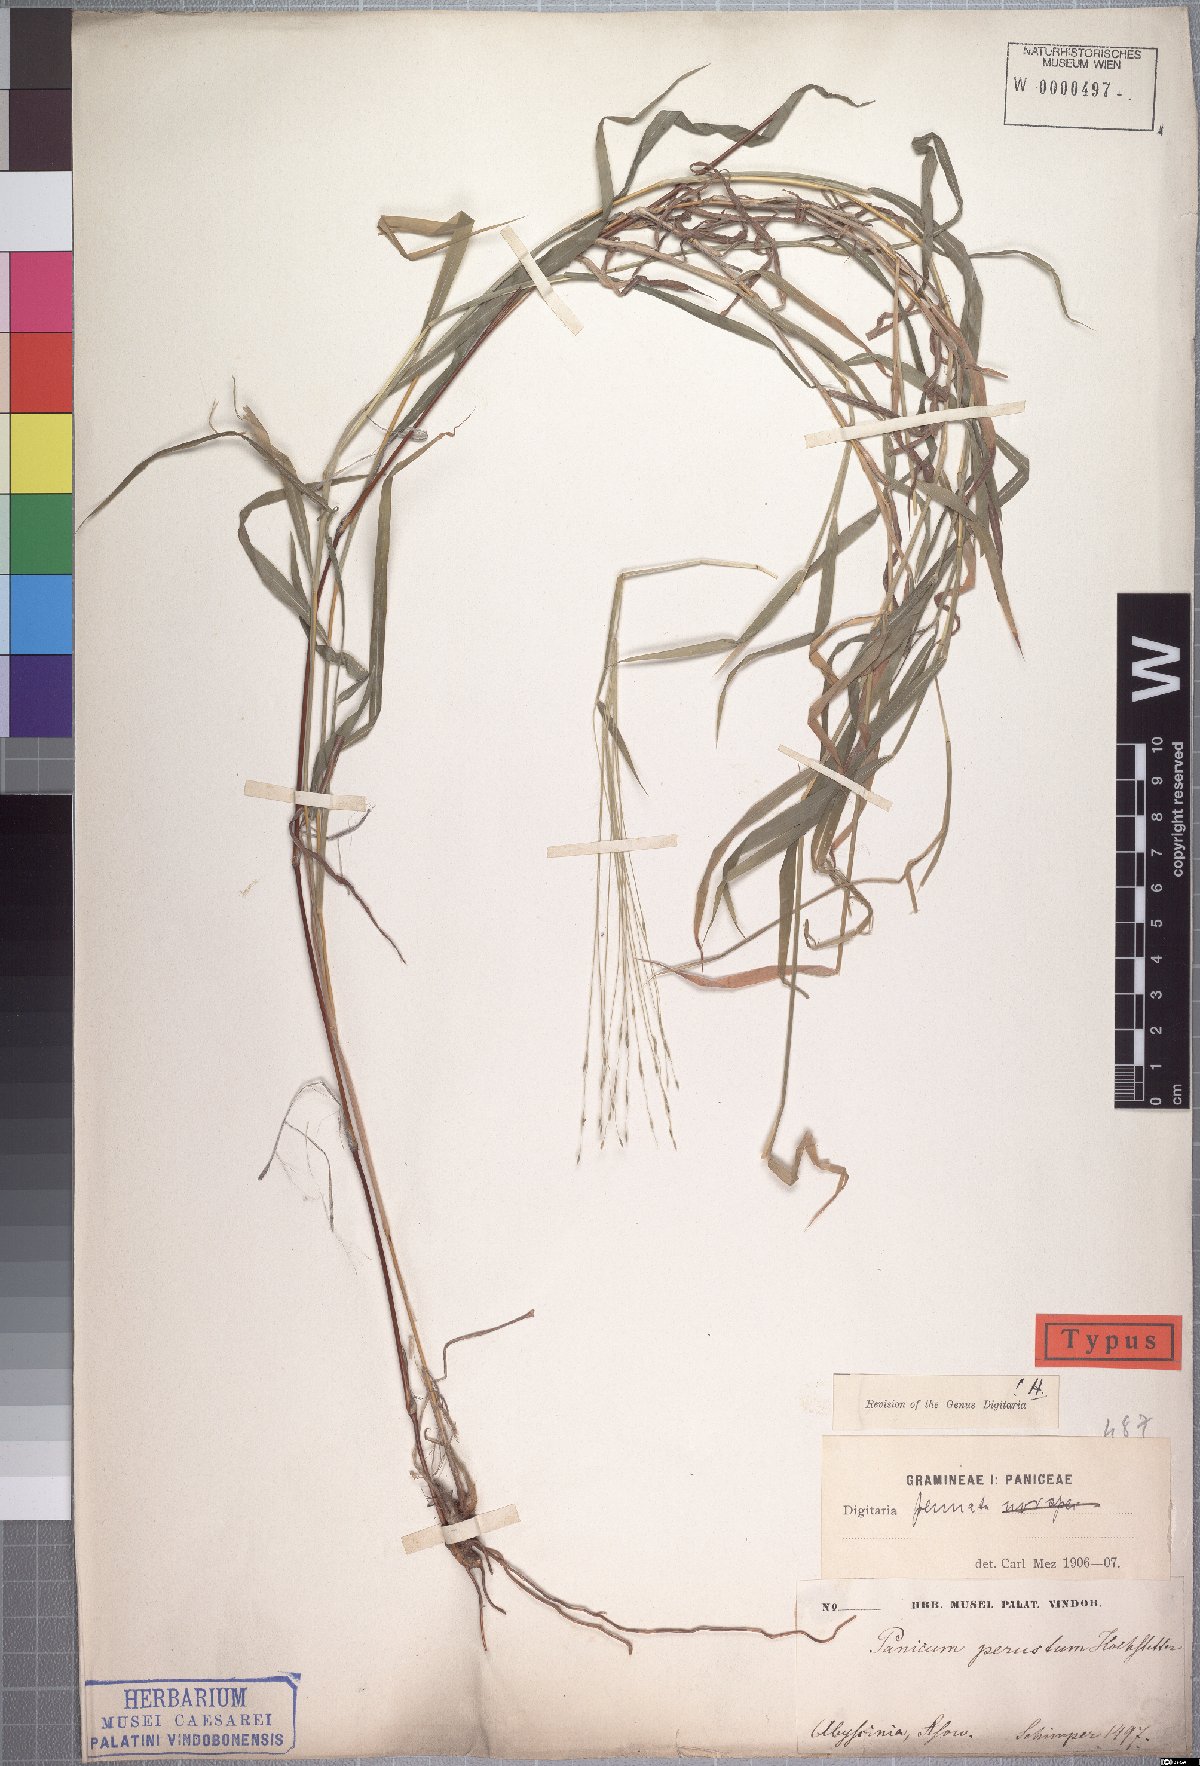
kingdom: Plantae
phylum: Tracheophyta
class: Liliopsida
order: Poales
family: Poaceae
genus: Digitaria
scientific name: Digitaria pennata
